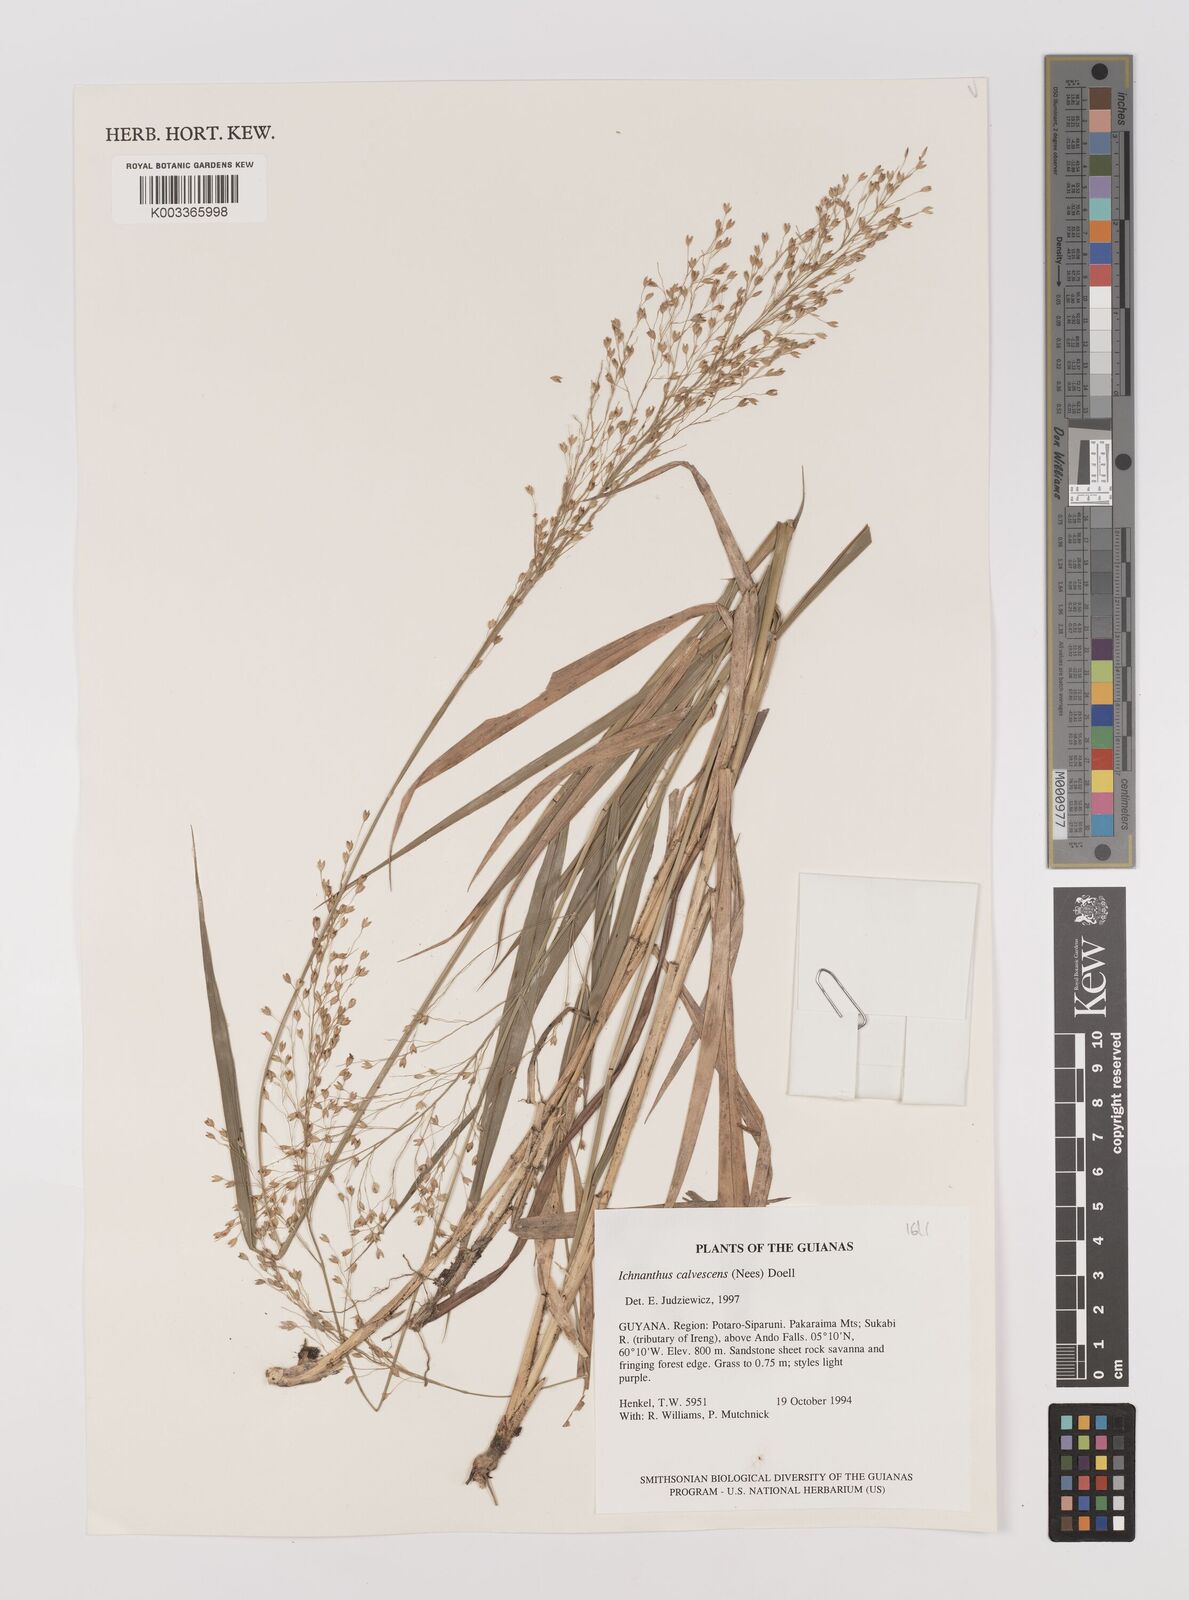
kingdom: Plantae
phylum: Tracheophyta
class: Liliopsida
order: Poales
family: Poaceae
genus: Ichnanthus
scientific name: Ichnanthus calvescens
